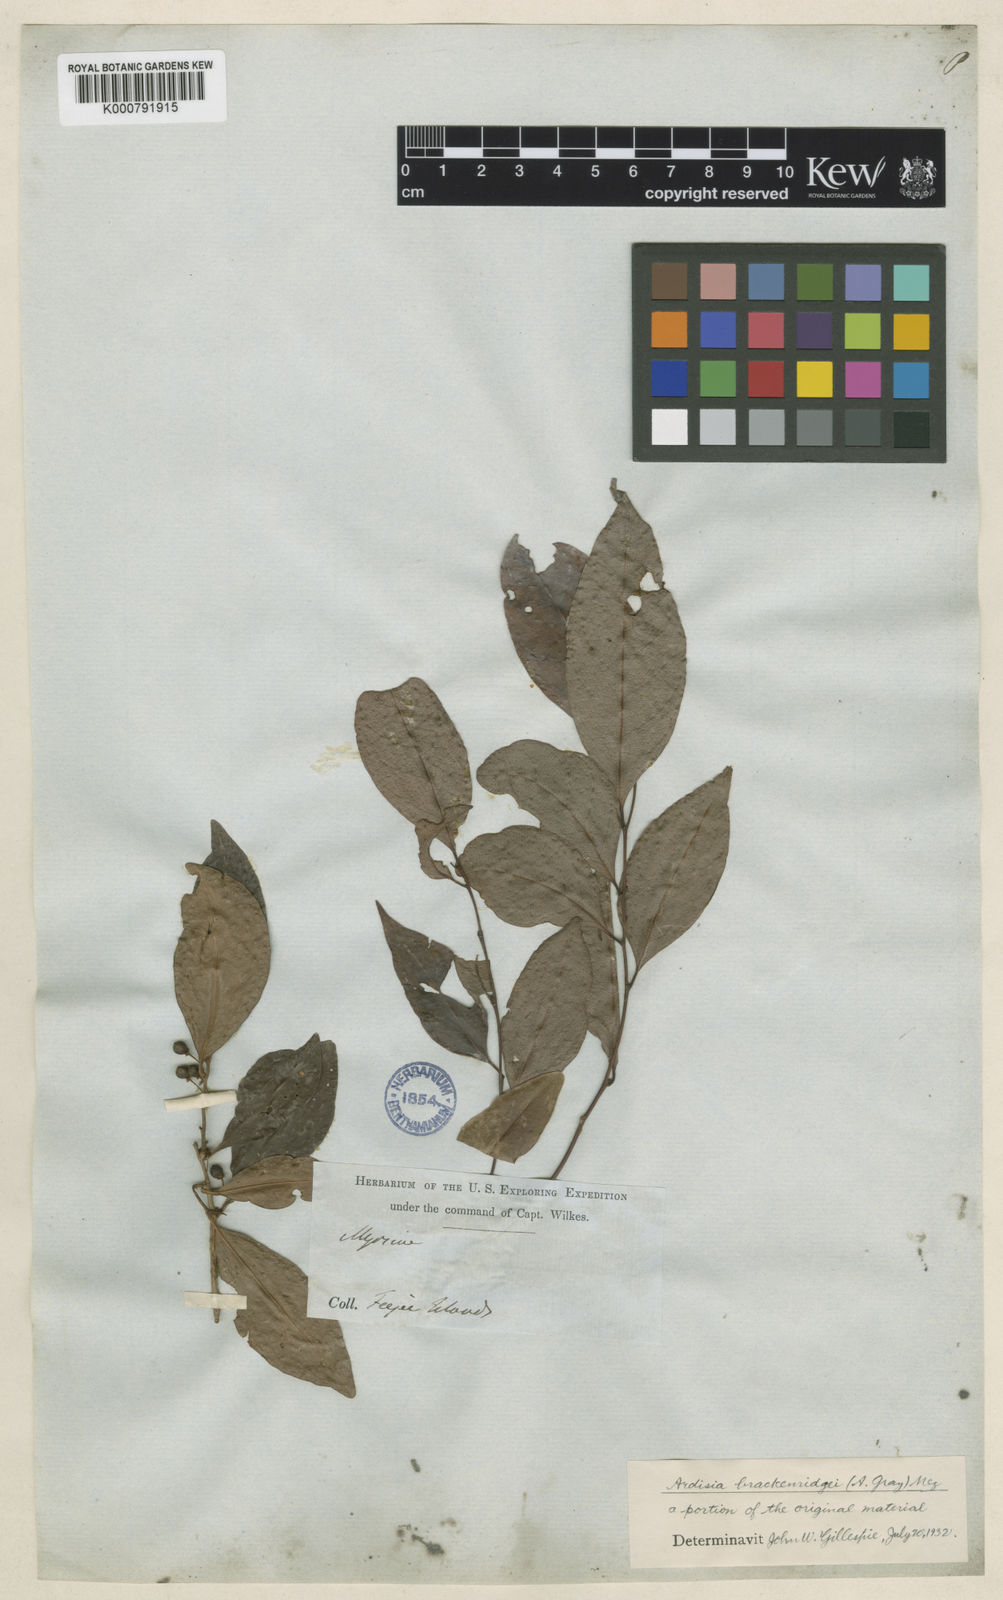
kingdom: Plantae
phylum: Tracheophyta
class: Magnoliopsida
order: Ericales
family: Primulaceae
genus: Ardisia
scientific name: Ardisia brackenridgei
